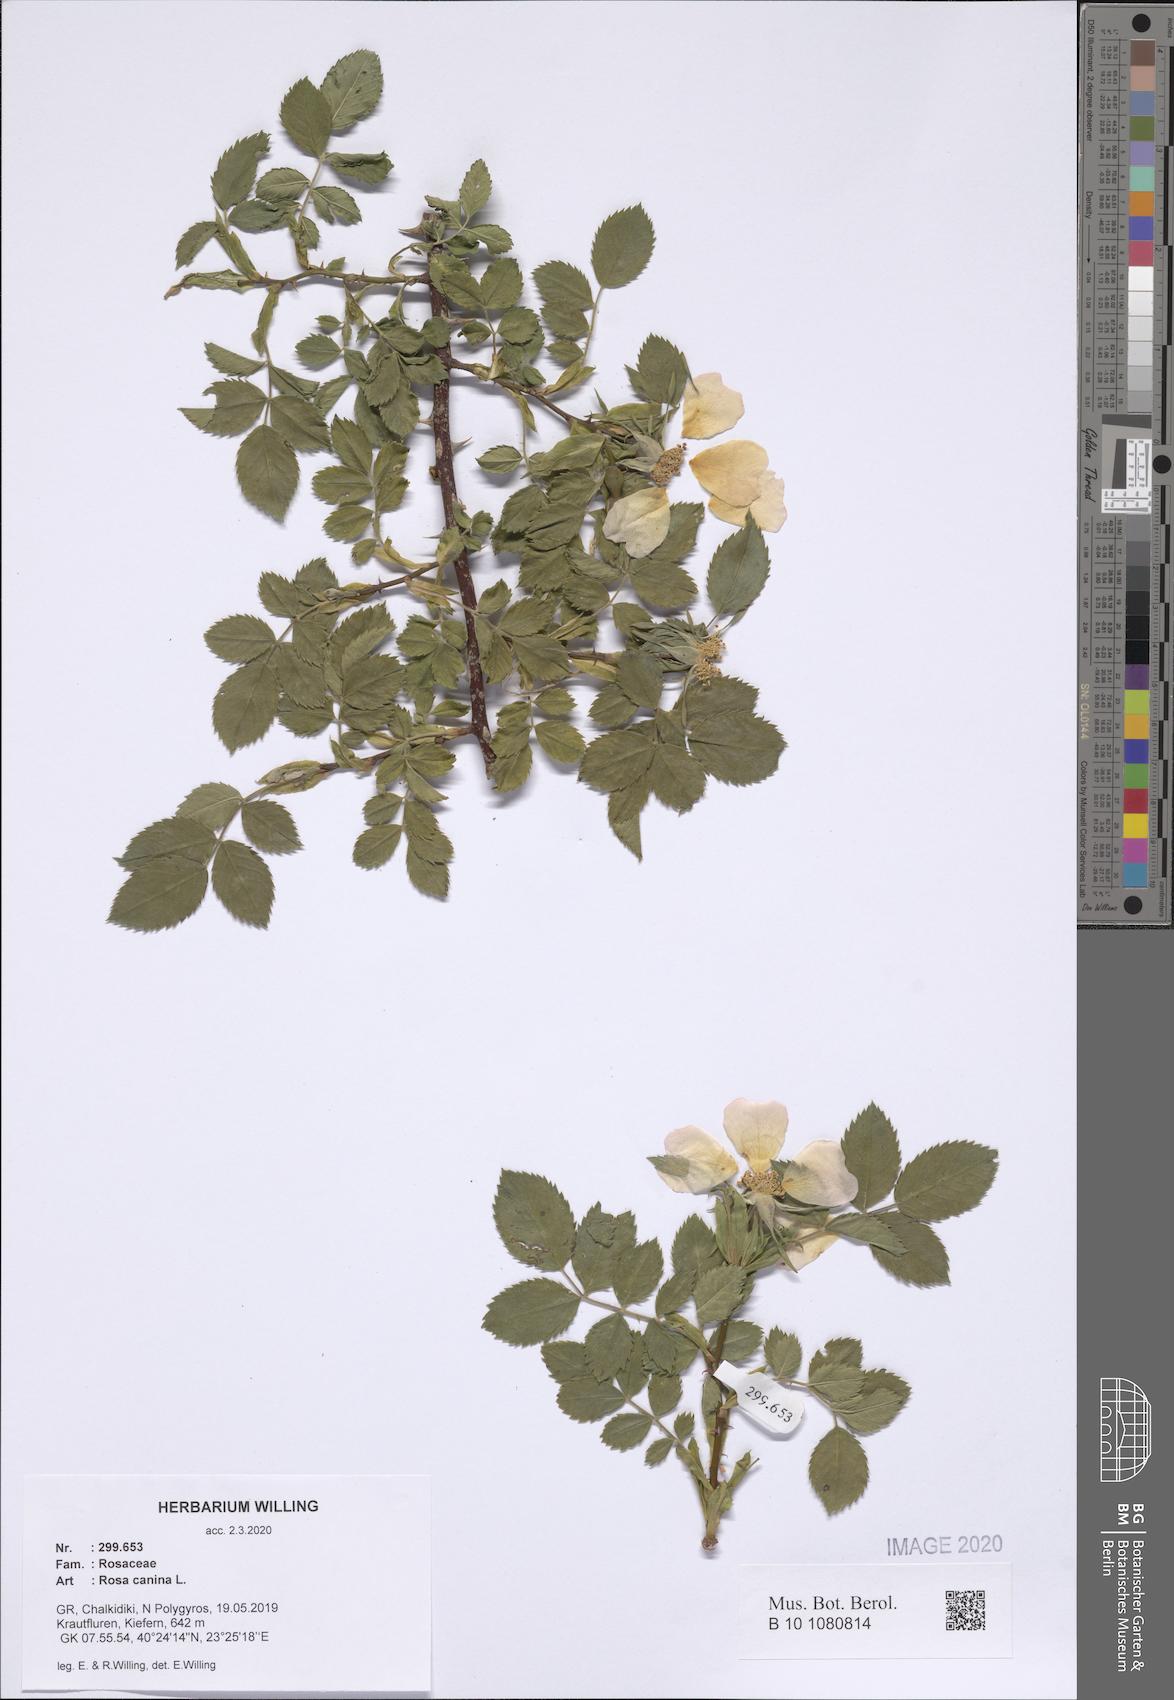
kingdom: Plantae
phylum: Tracheophyta
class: Magnoliopsida
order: Rosales
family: Rosaceae
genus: Rosa
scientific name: Rosa canina
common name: Dog rose
